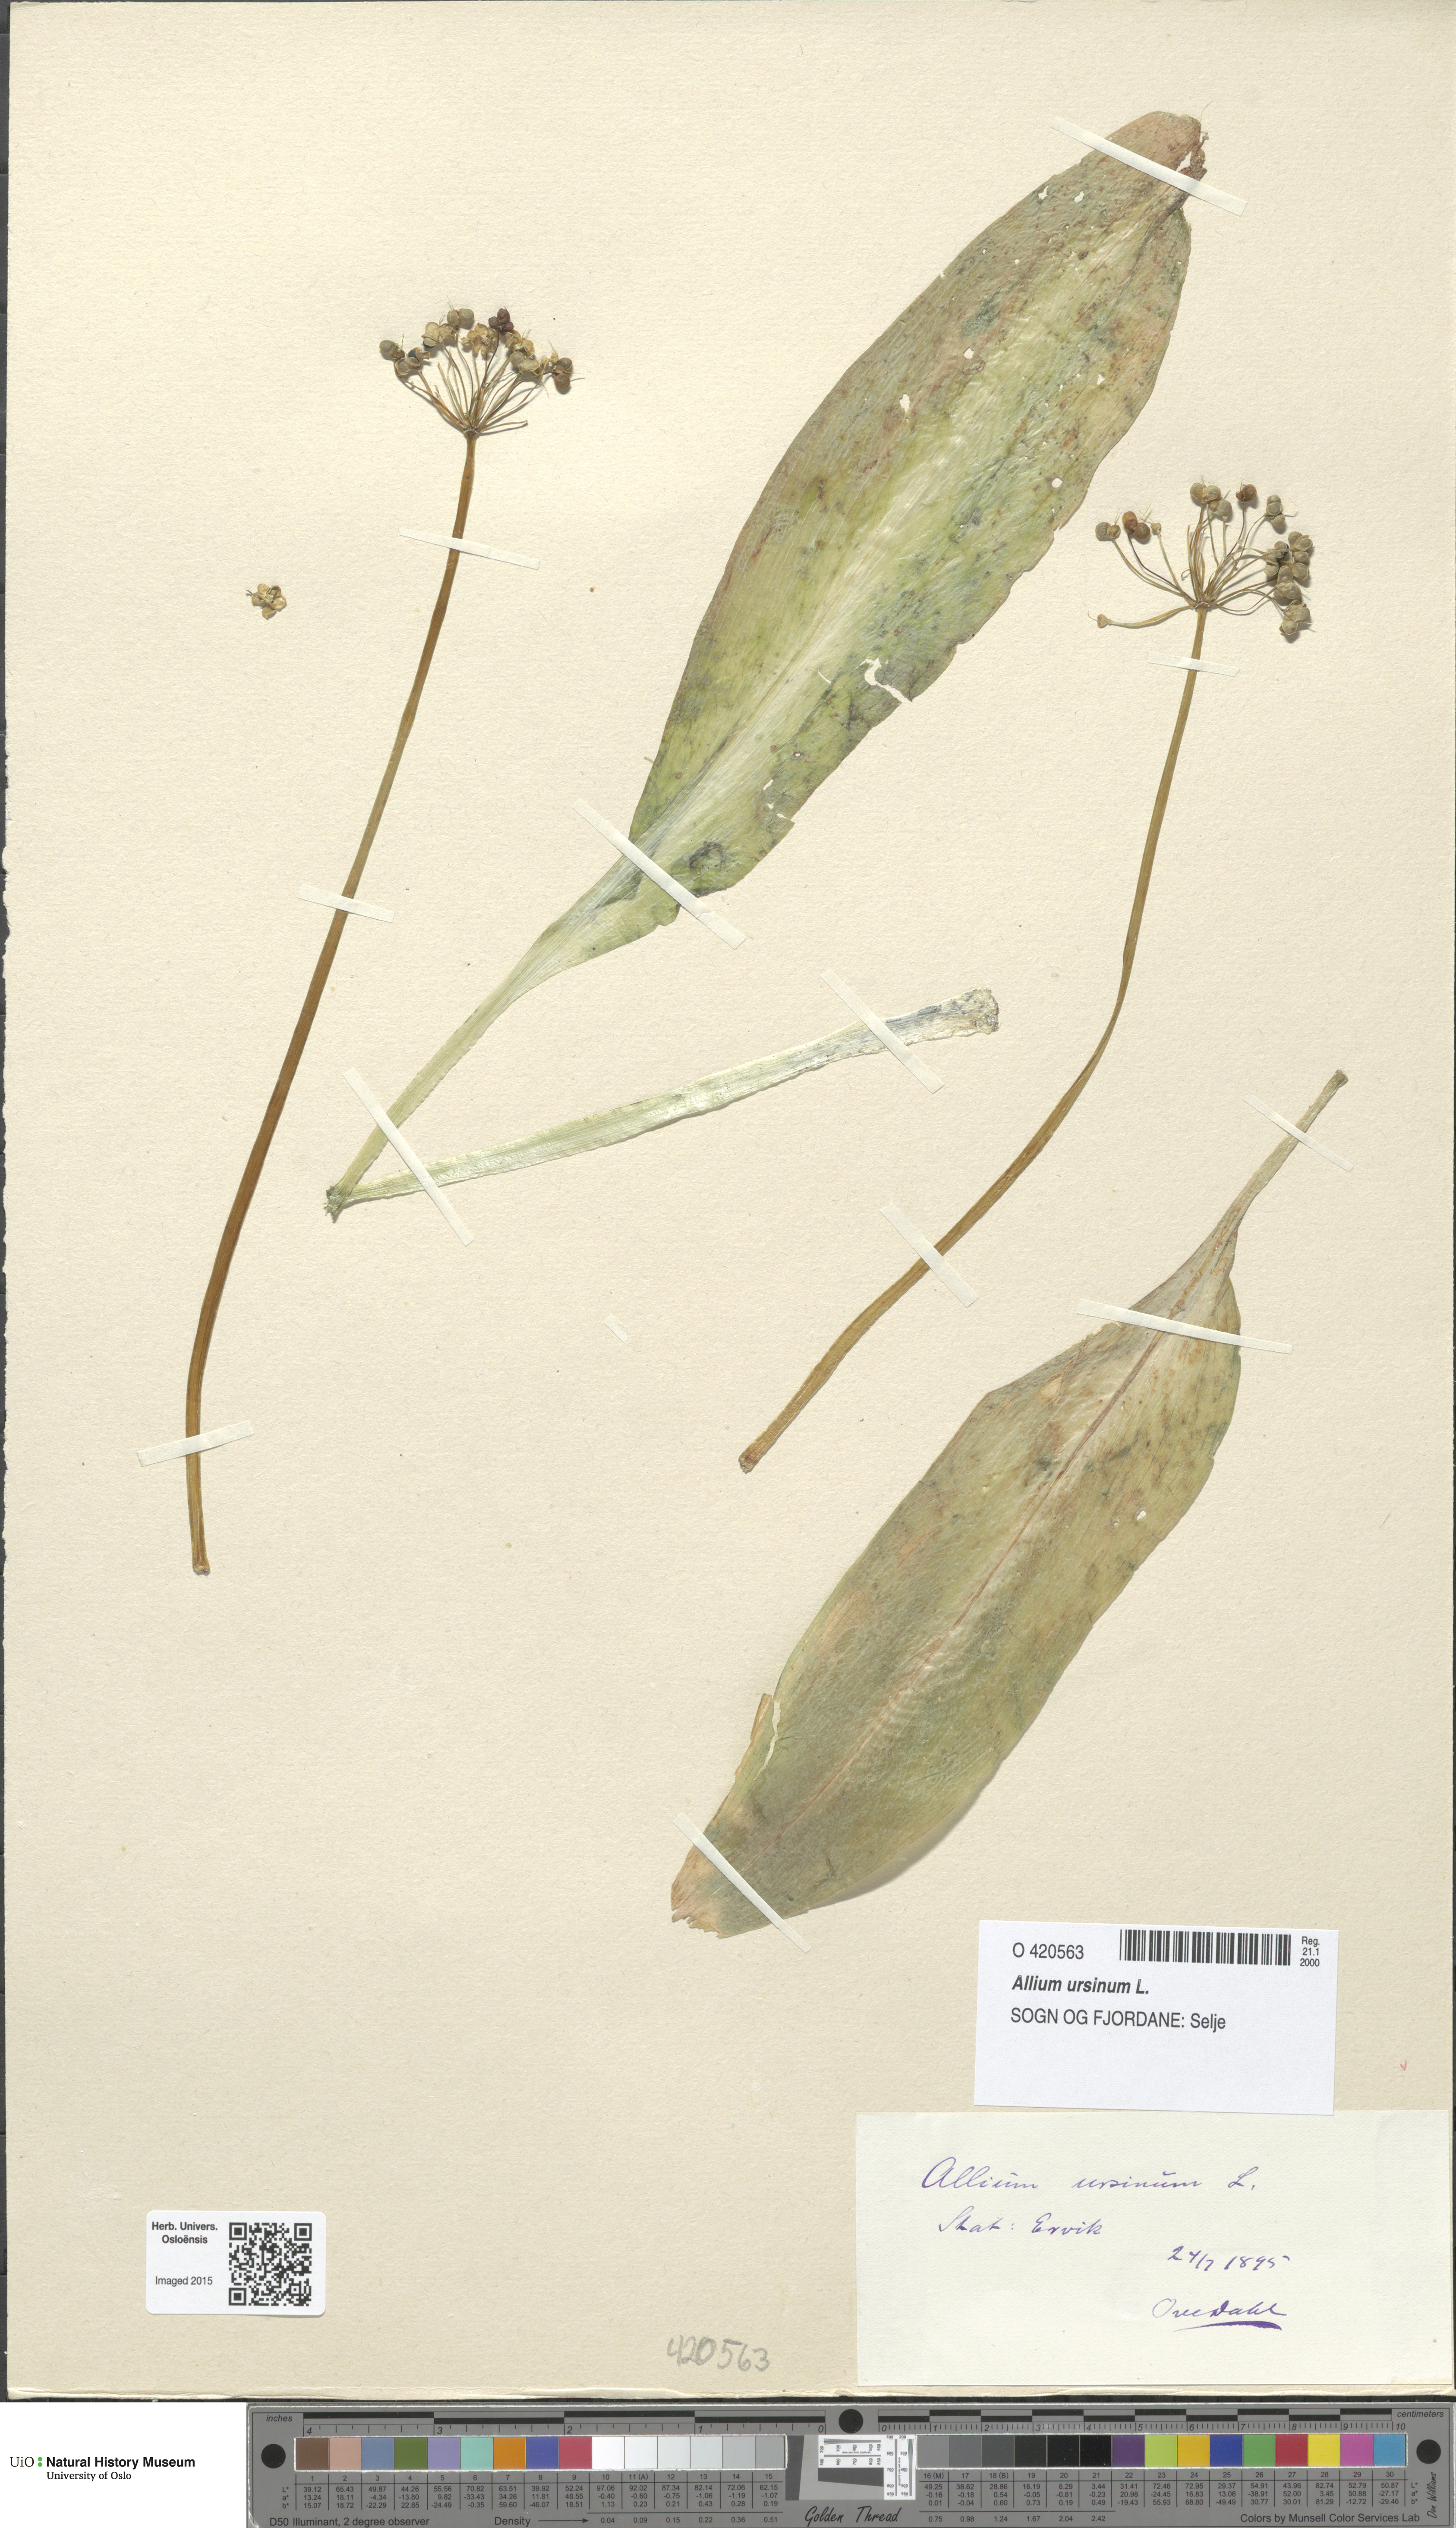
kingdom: Plantae
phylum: Tracheophyta
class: Liliopsida
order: Asparagales
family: Amaryllidaceae
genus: Allium
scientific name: Allium ursinum
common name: Ramsons
